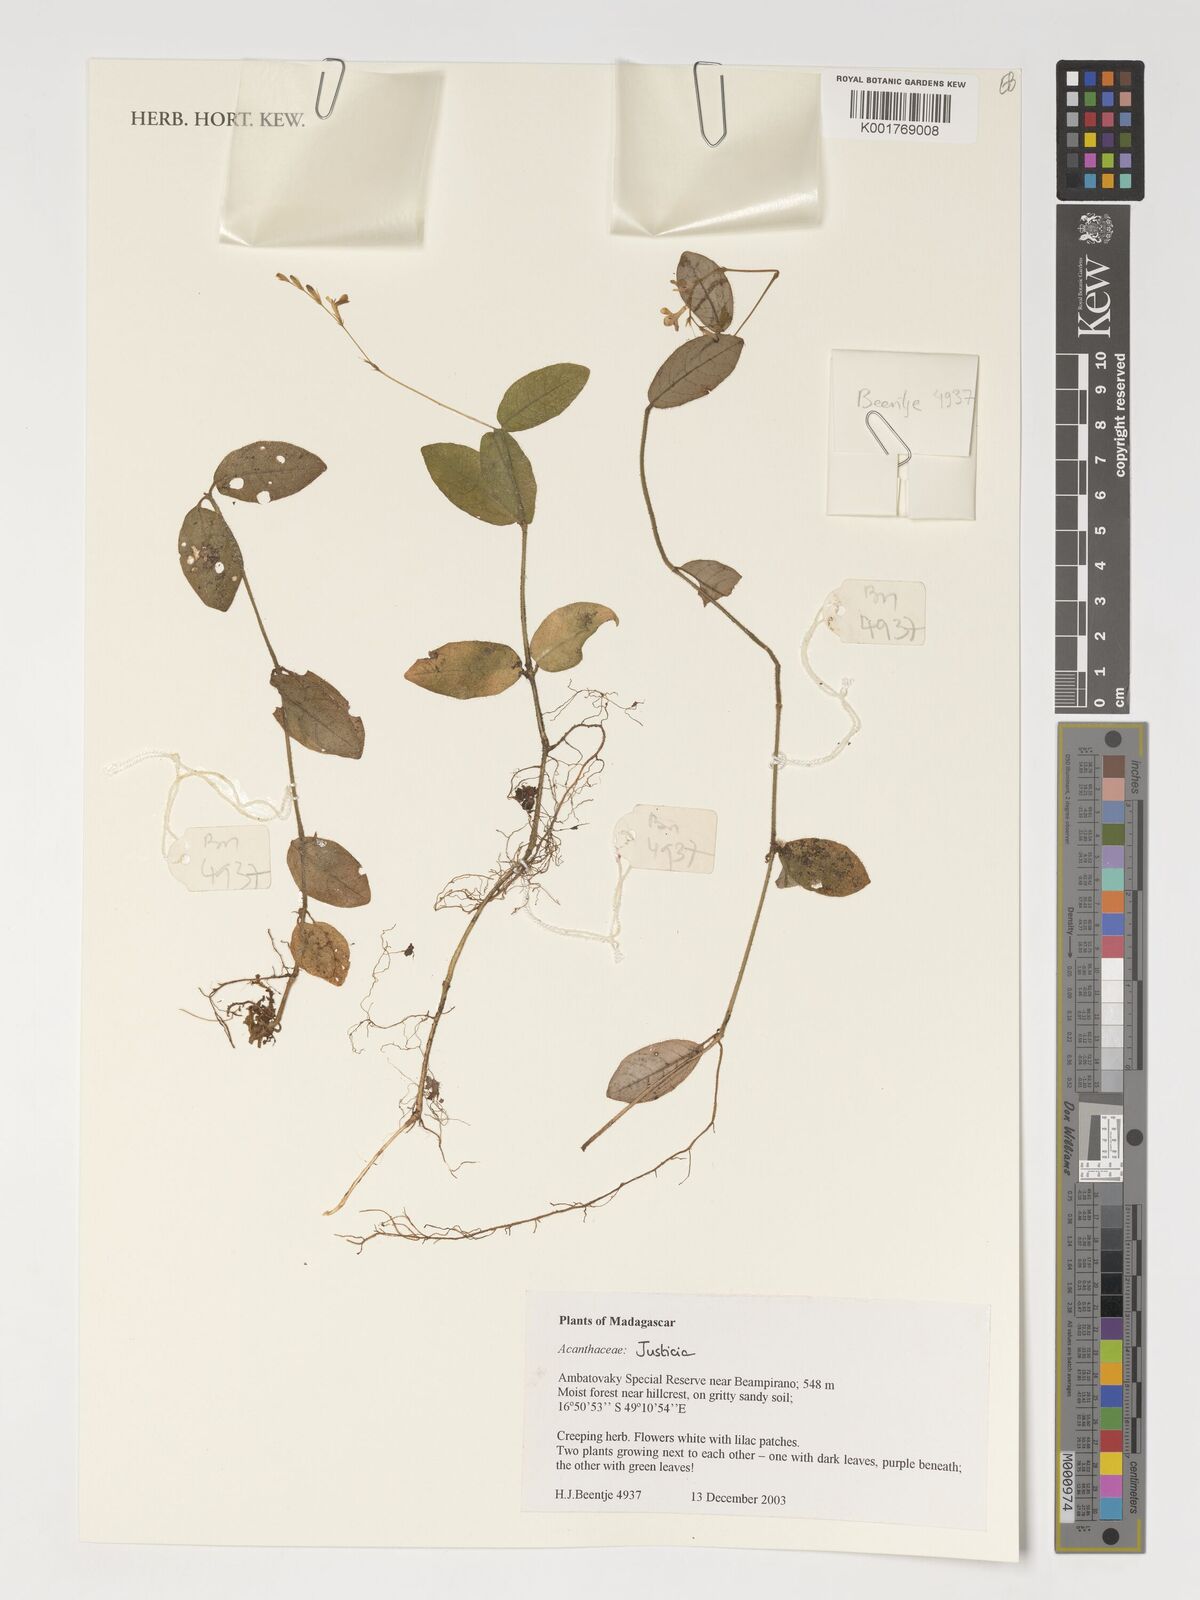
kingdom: Plantae
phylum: Tracheophyta
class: Magnoliopsida
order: Lamiales
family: Acanthaceae
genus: Justicia
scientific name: Justicia
